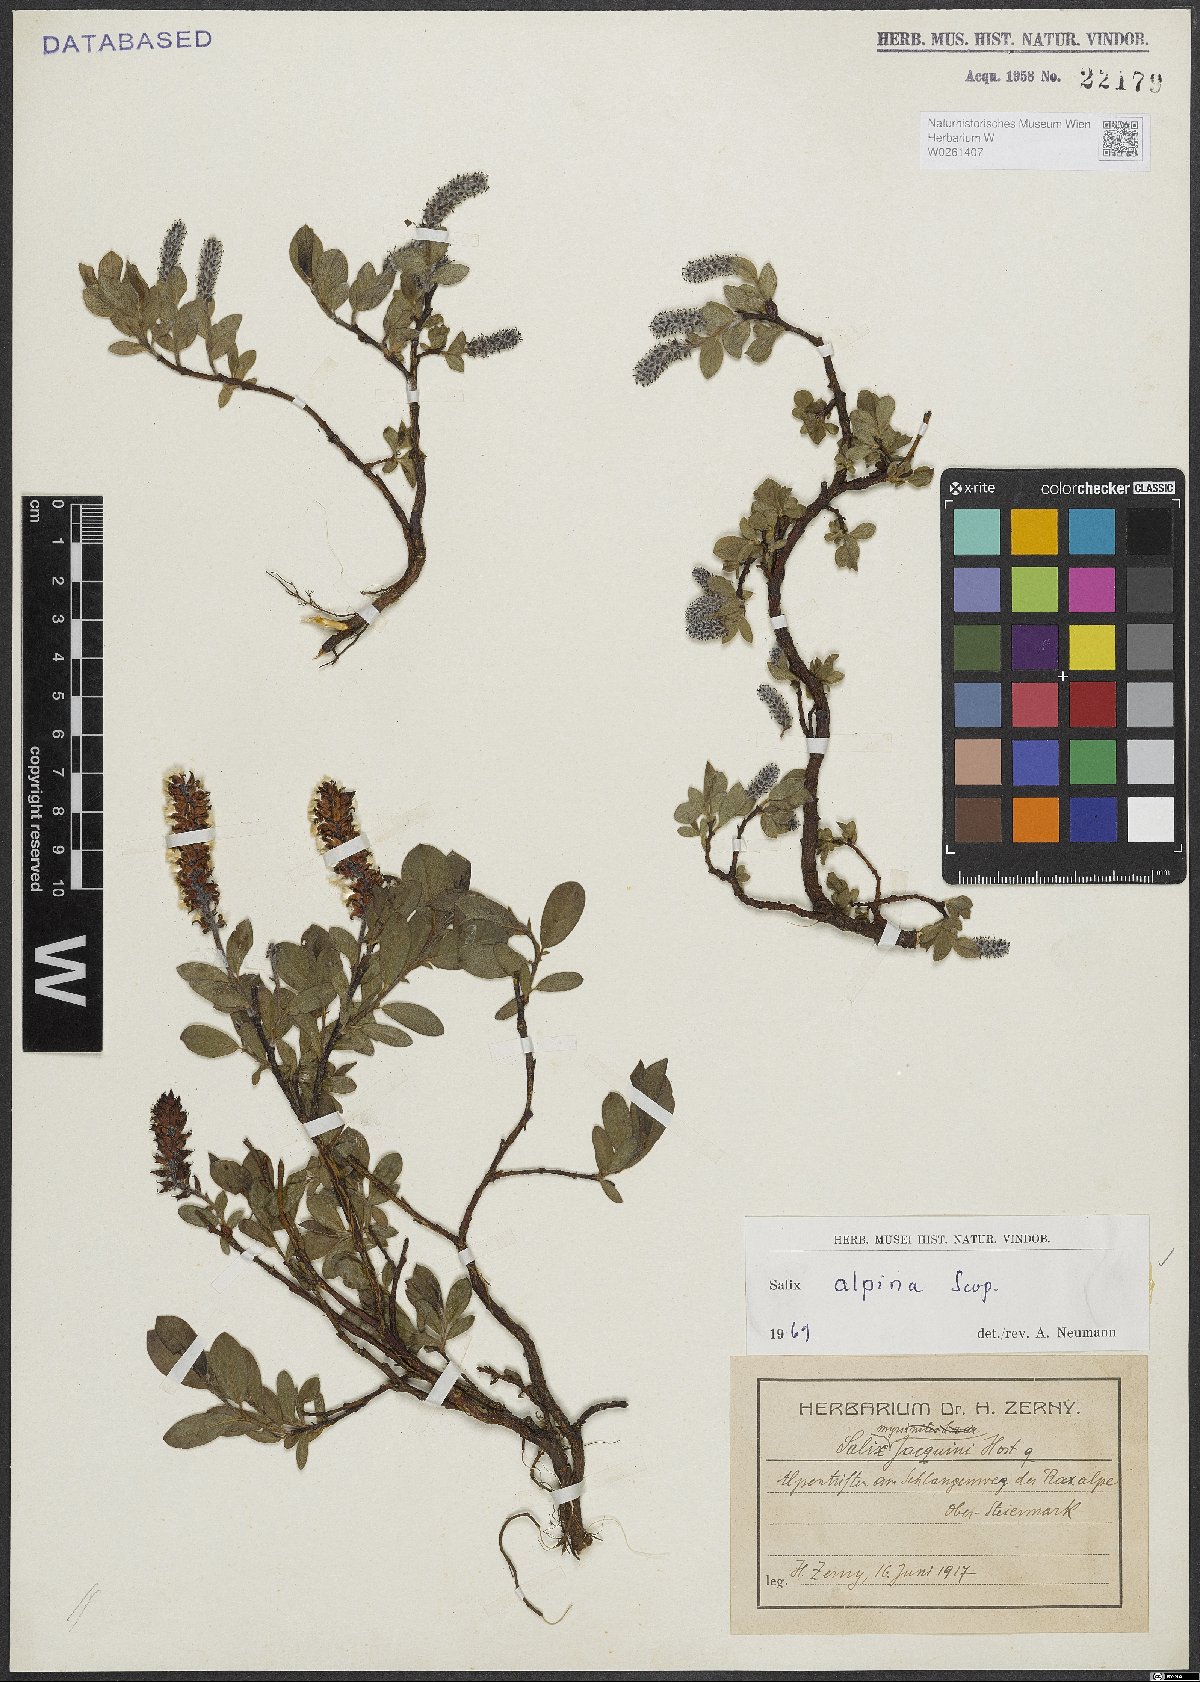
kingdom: Plantae
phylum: Tracheophyta
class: Magnoliopsida
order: Malpighiales
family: Salicaceae
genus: Salix
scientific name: Salix alpina
